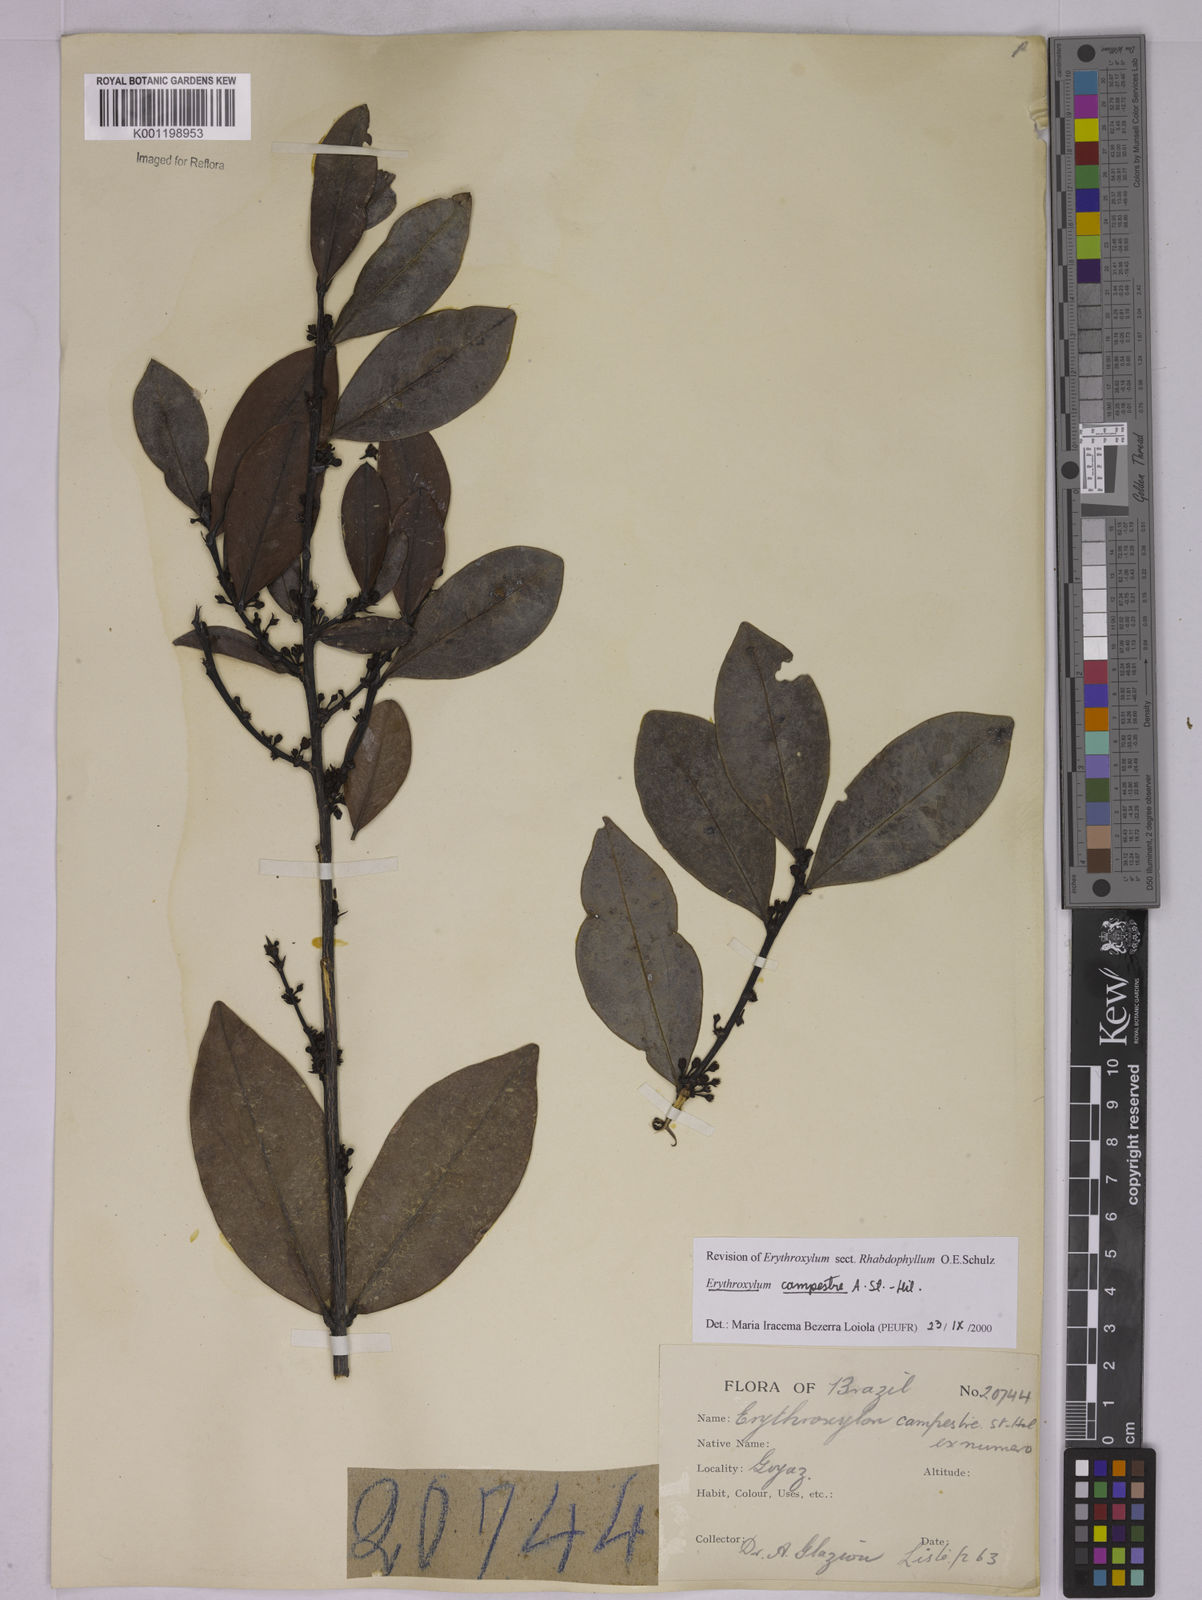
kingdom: Plantae
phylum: Tracheophyta
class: Magnoliopsida
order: Malpighiales
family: Erythroxylaceae
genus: Erythroxylum
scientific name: Erythroxylum campestre
